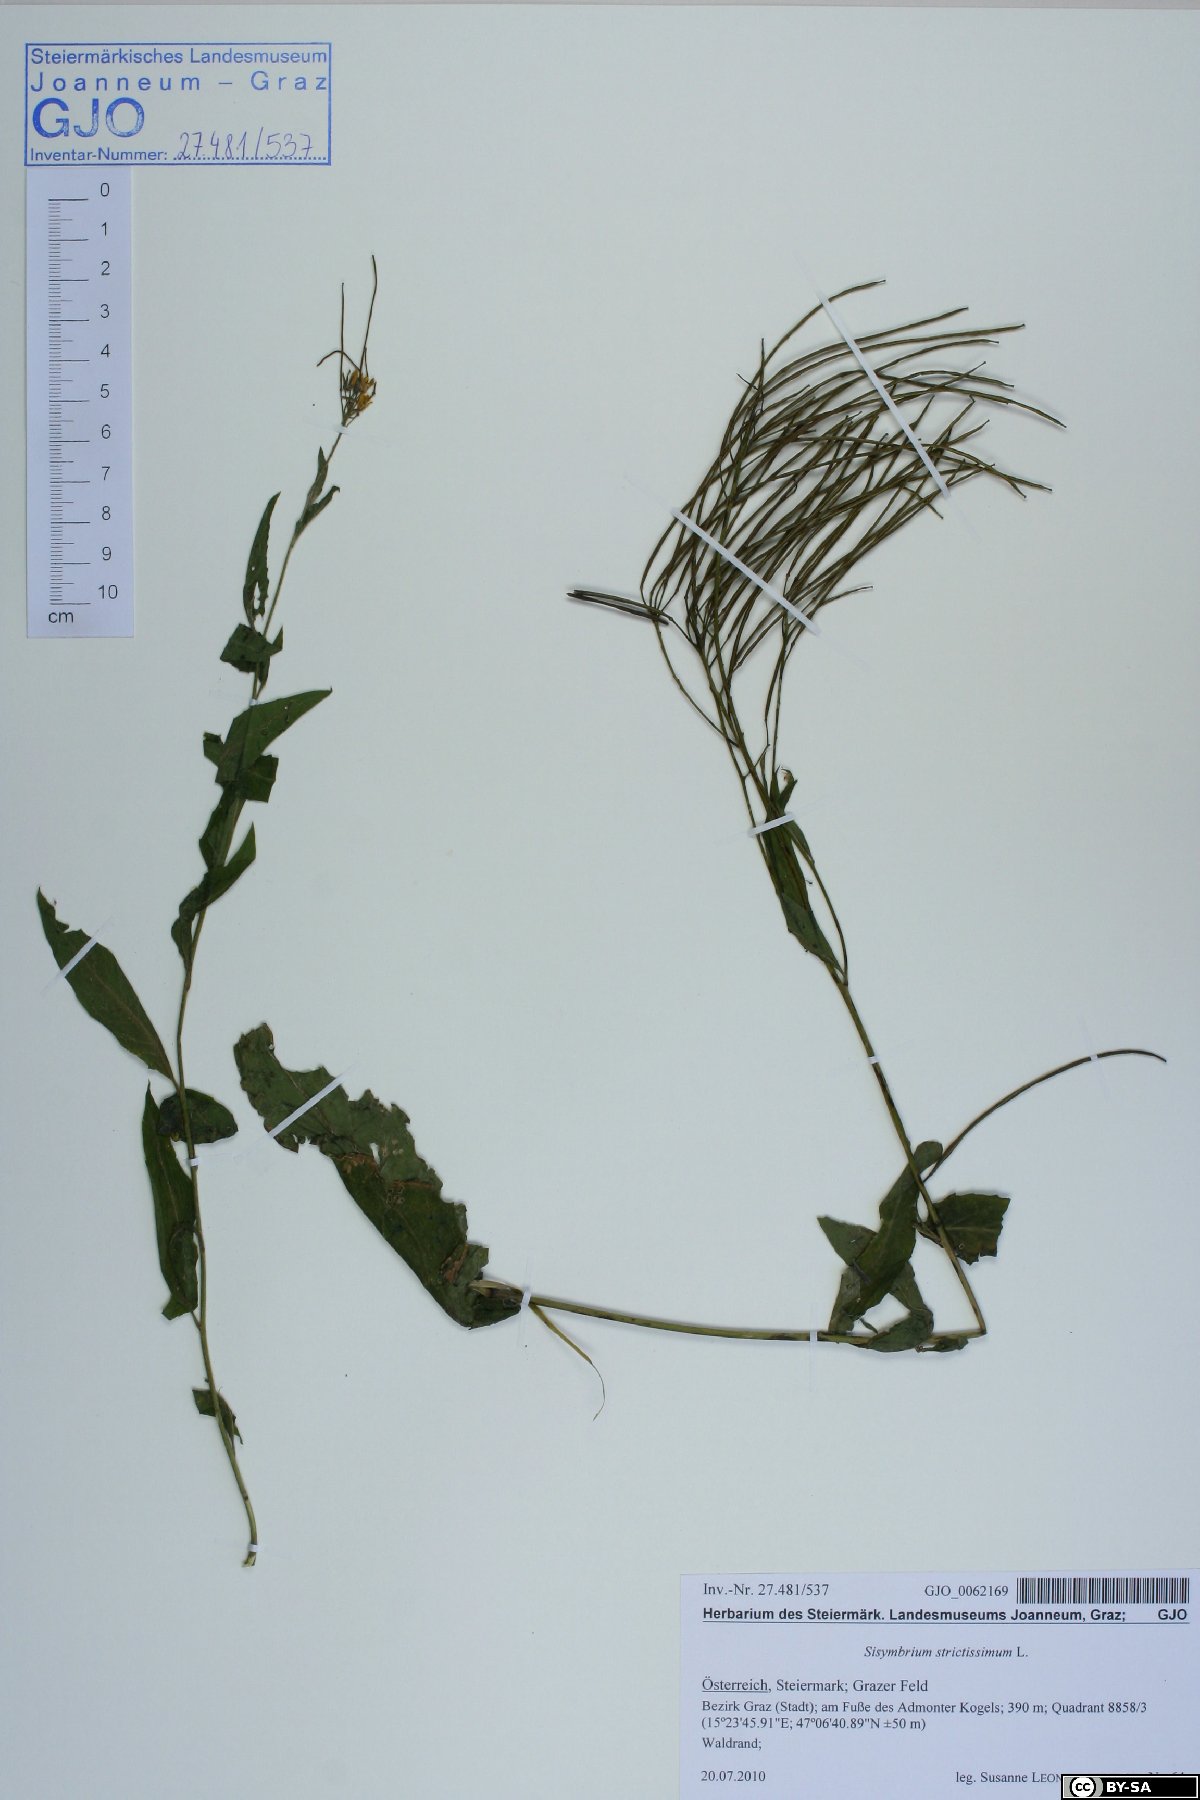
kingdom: Plantae
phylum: Tracheophyta
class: Magnoliopsida
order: Brassicales
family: Brassicaceae
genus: Sisymbrium
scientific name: Sisymbrium strictissimum
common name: Perennial rocket
